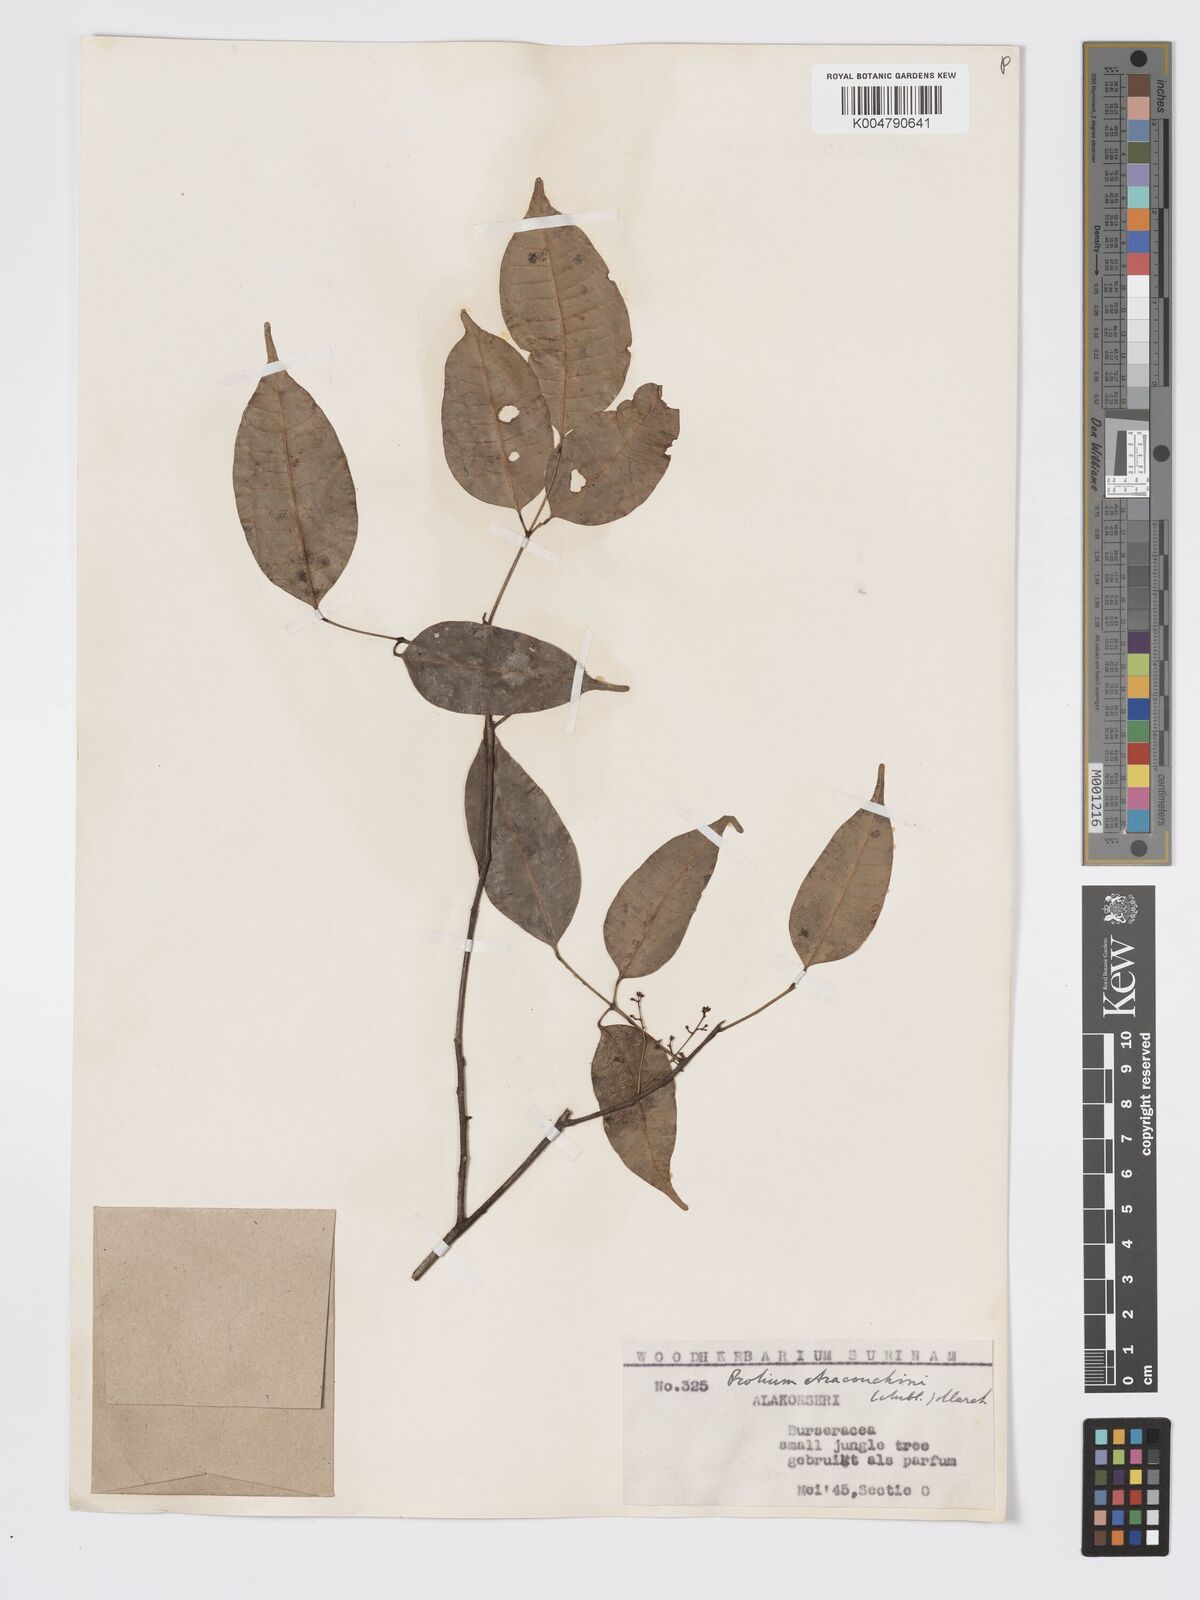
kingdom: Plantae
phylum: Tracheophyta
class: Magnoliopsida
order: Sapindales
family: Burseraceae
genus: Protium
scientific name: Protium aracouchini
